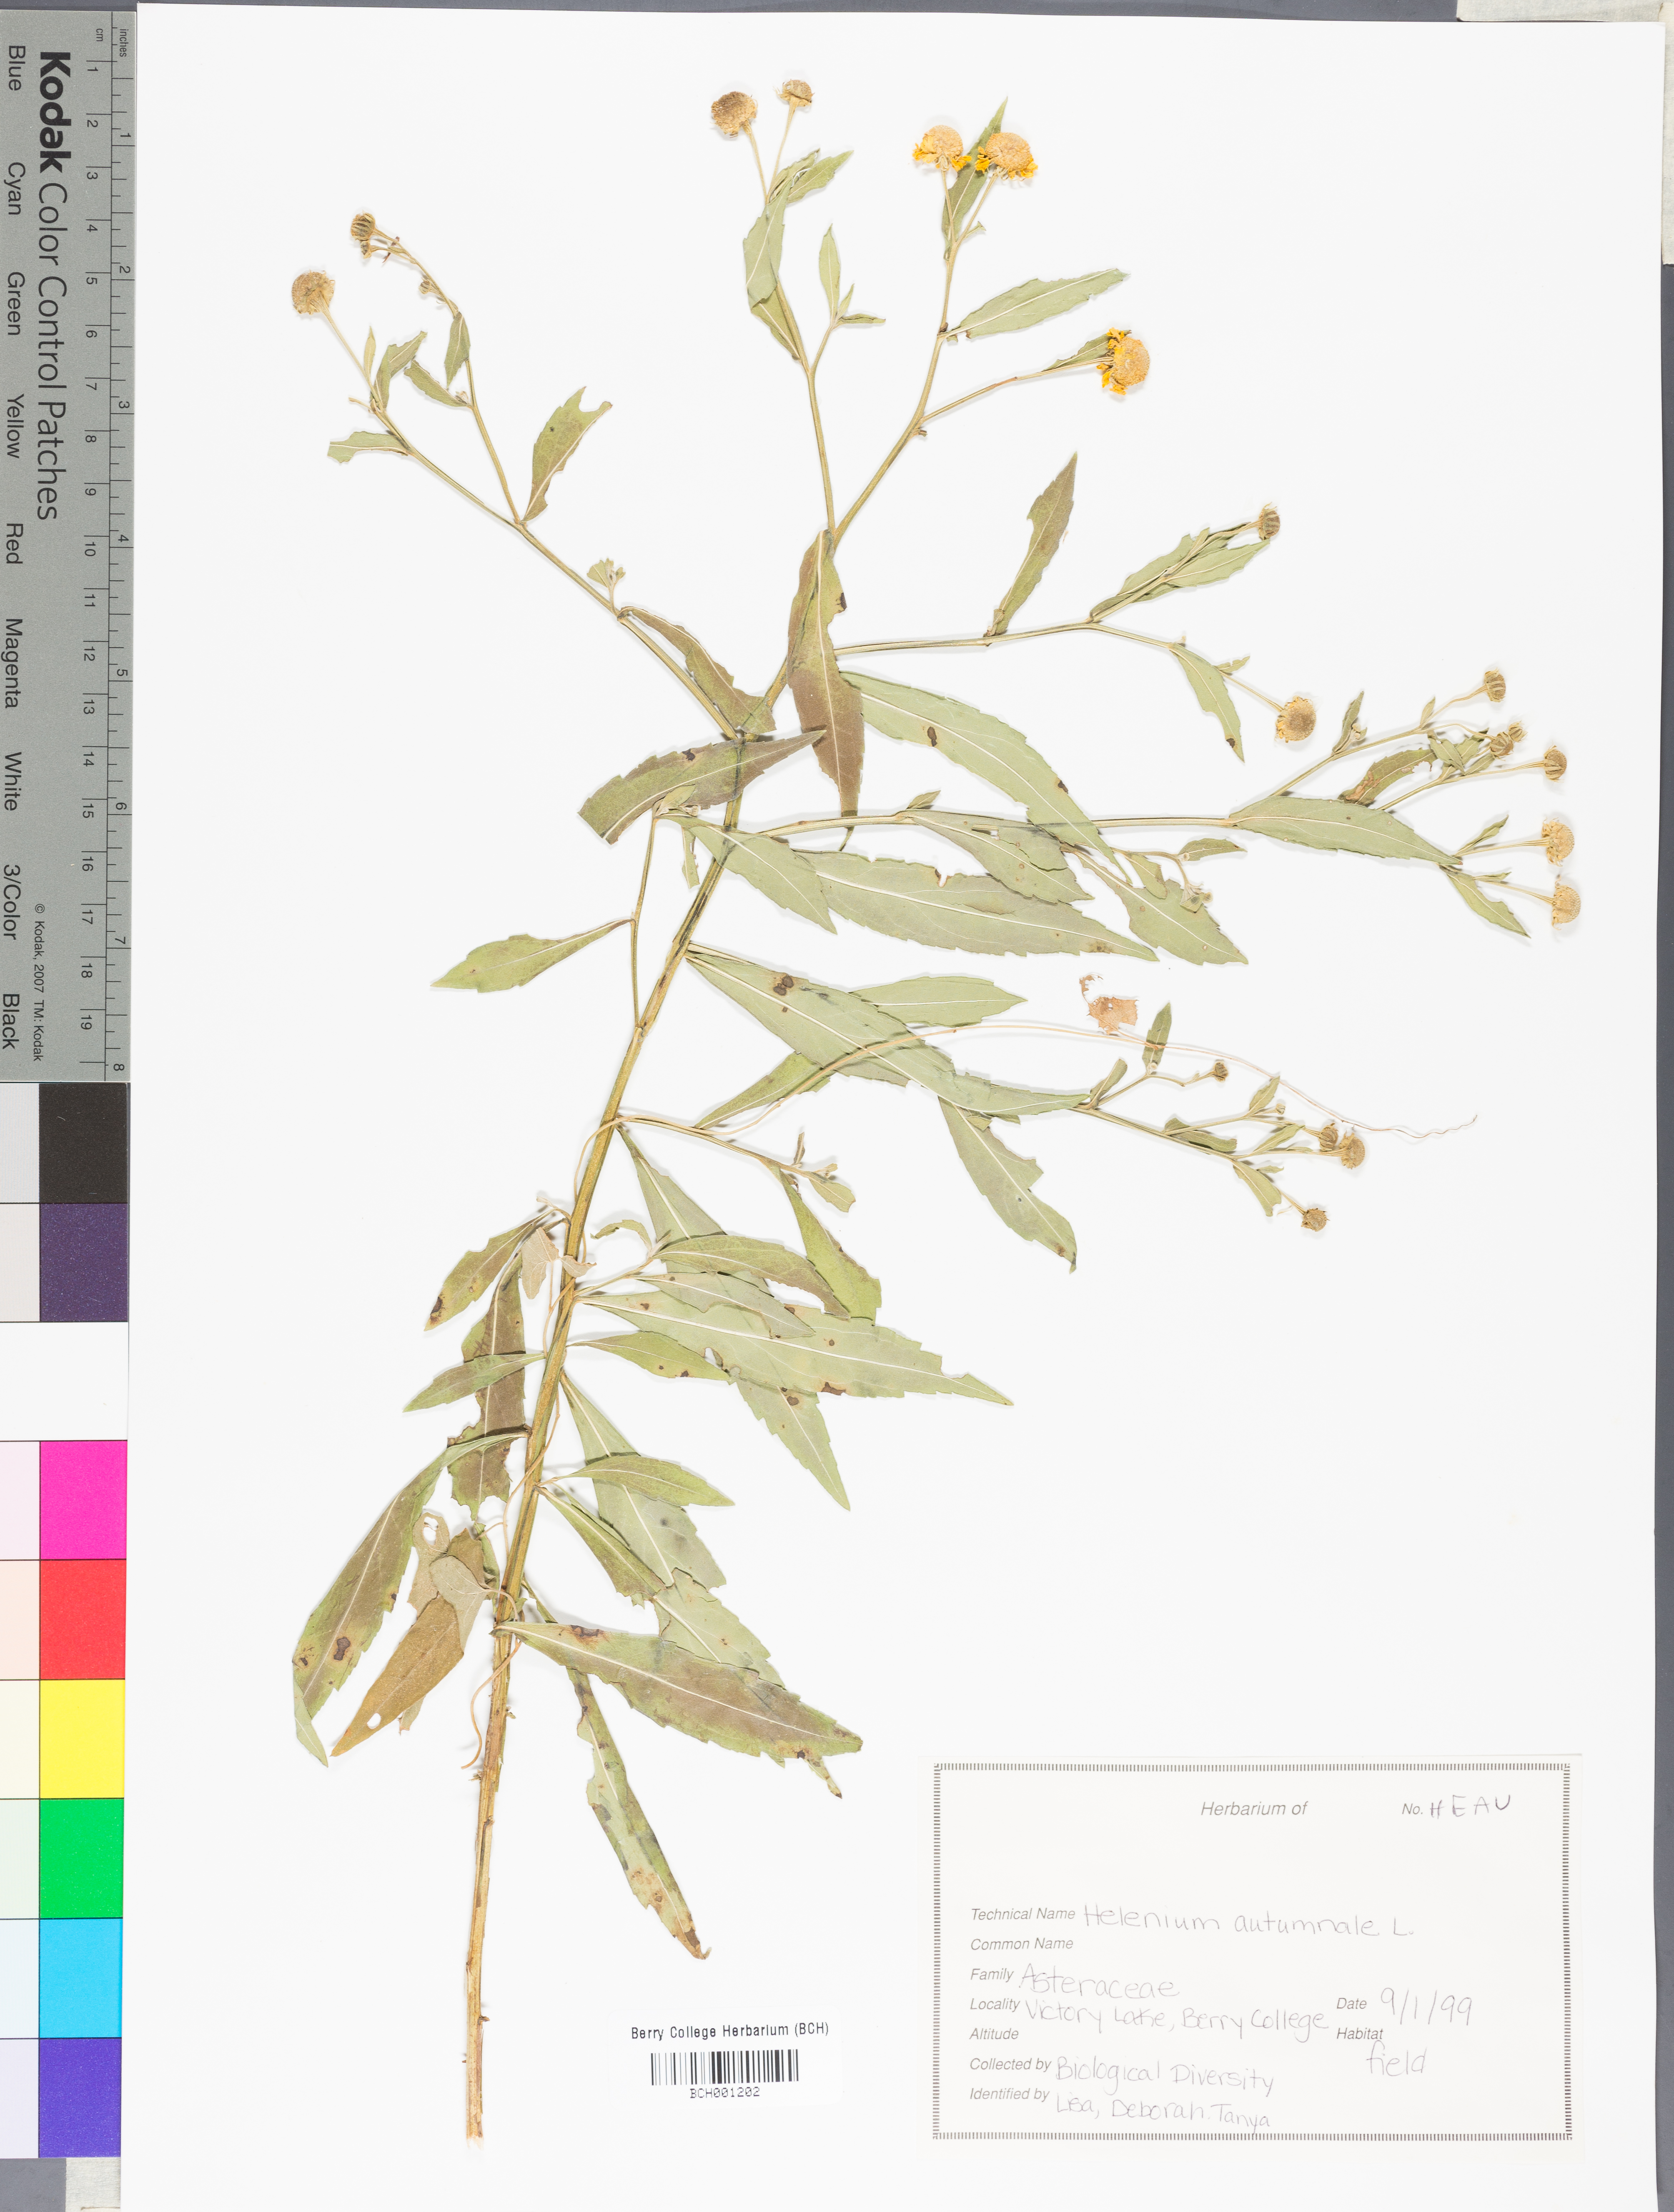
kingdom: Plantae
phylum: Tracheophyta
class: Magnoliopsida
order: Asterales
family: Asteraceae
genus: Helenium
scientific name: Helenium autumnale
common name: Sneezeweed
